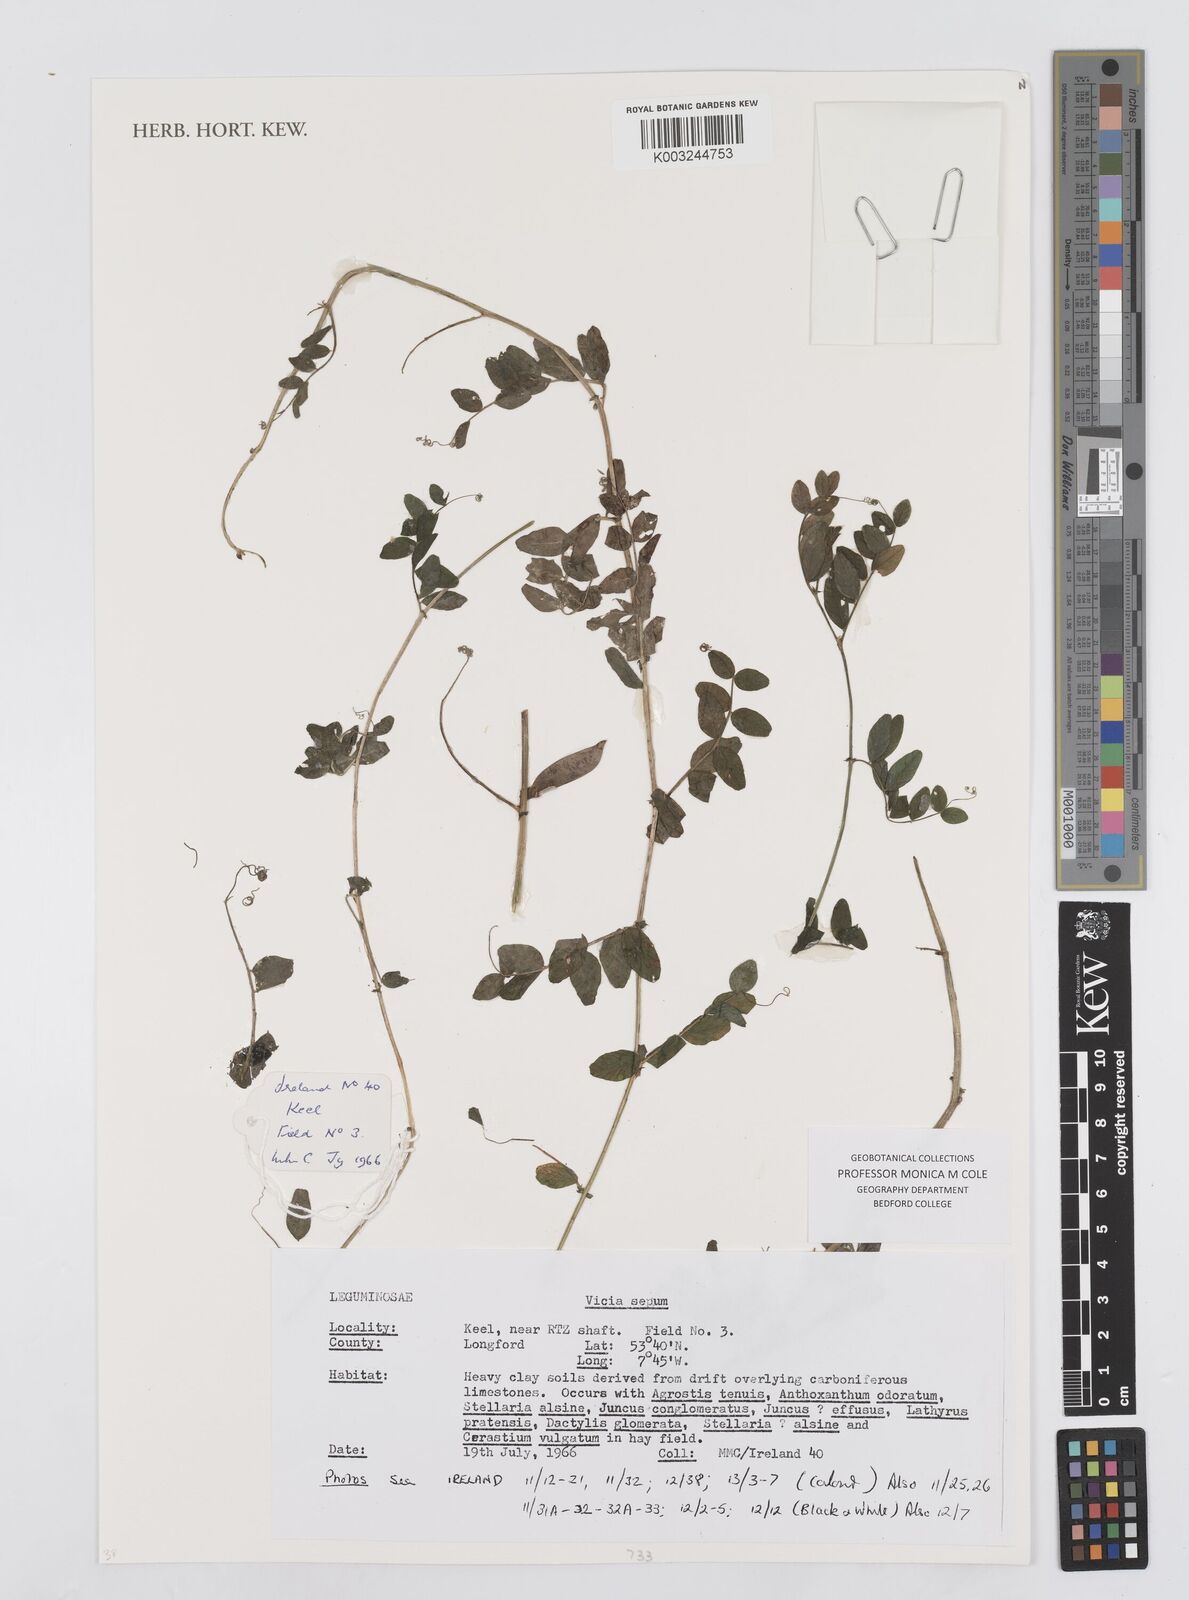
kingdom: Plantae
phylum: Tracheophyta
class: Magnoliopsida
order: Fabales
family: Fabaceae
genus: Vicia
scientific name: Vicia sepium
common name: Bush vetch
